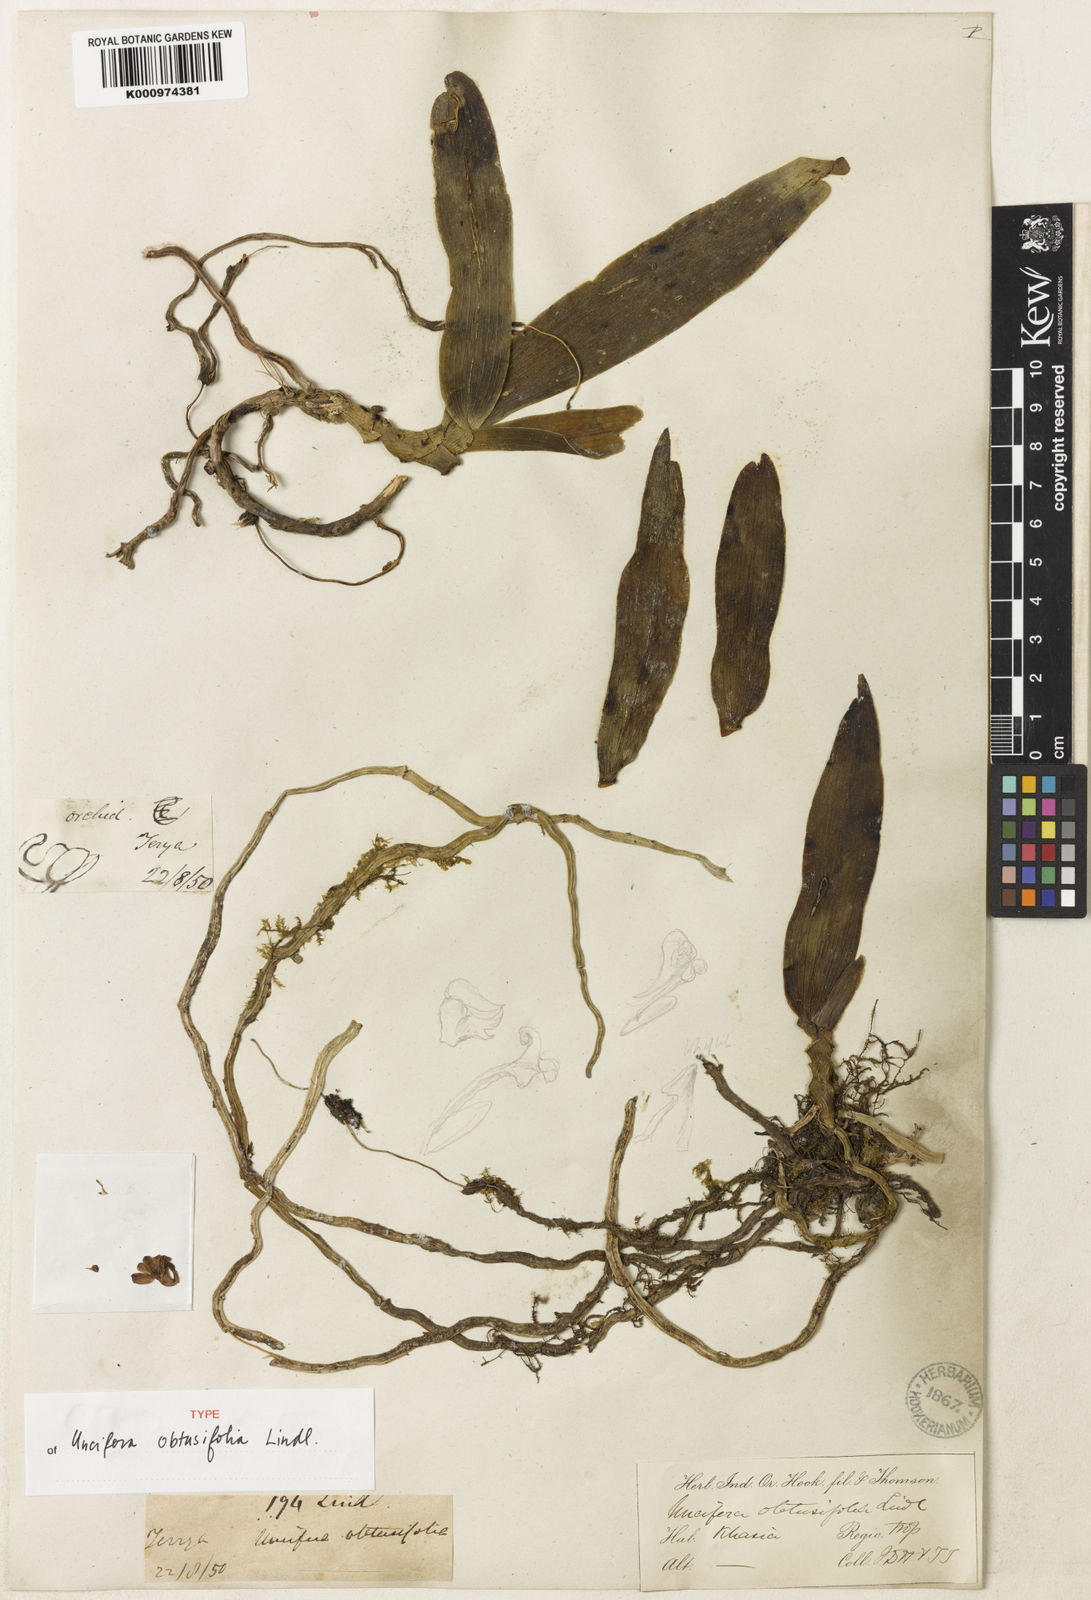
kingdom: Plantae
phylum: Tracheophyta
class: Liliopsida
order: Asparagales
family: Orchidaceae
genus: Uncifera
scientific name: Uncifera obtusifolia
